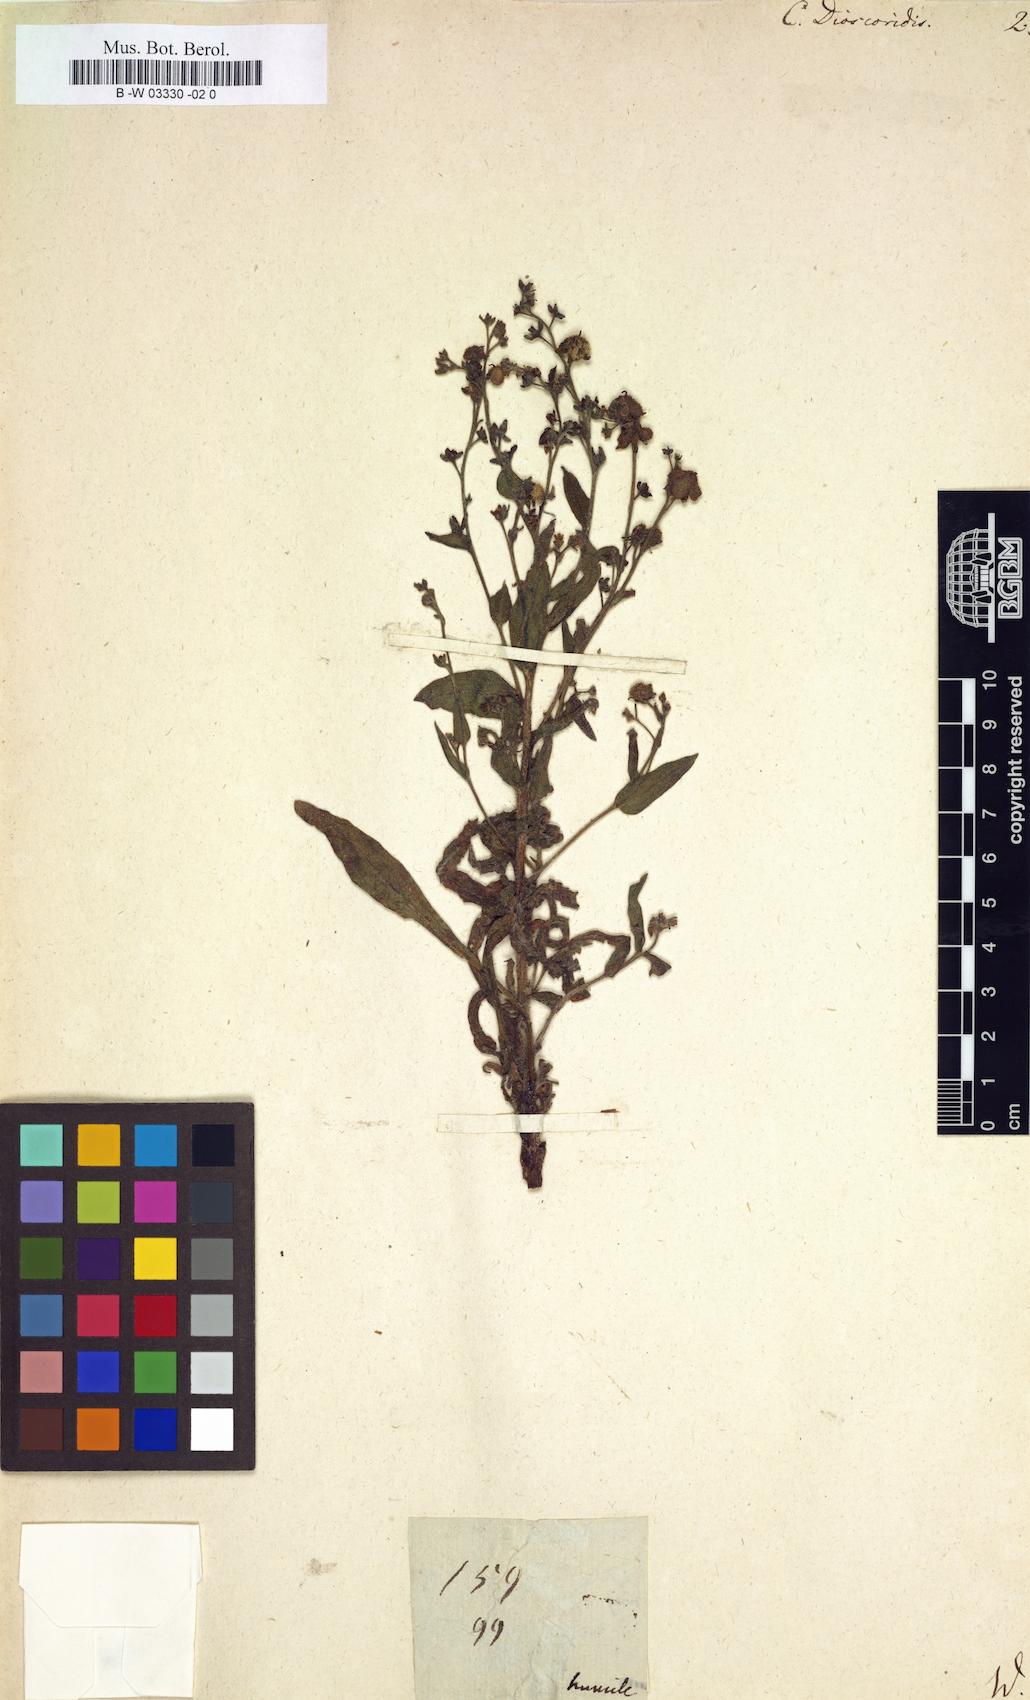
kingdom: Plantae
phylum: Tracheophyta
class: Magnoliopsida
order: Boraginales
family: Boraginaceae
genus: Cynoglossum
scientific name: Cynoglossum dioscoridis
